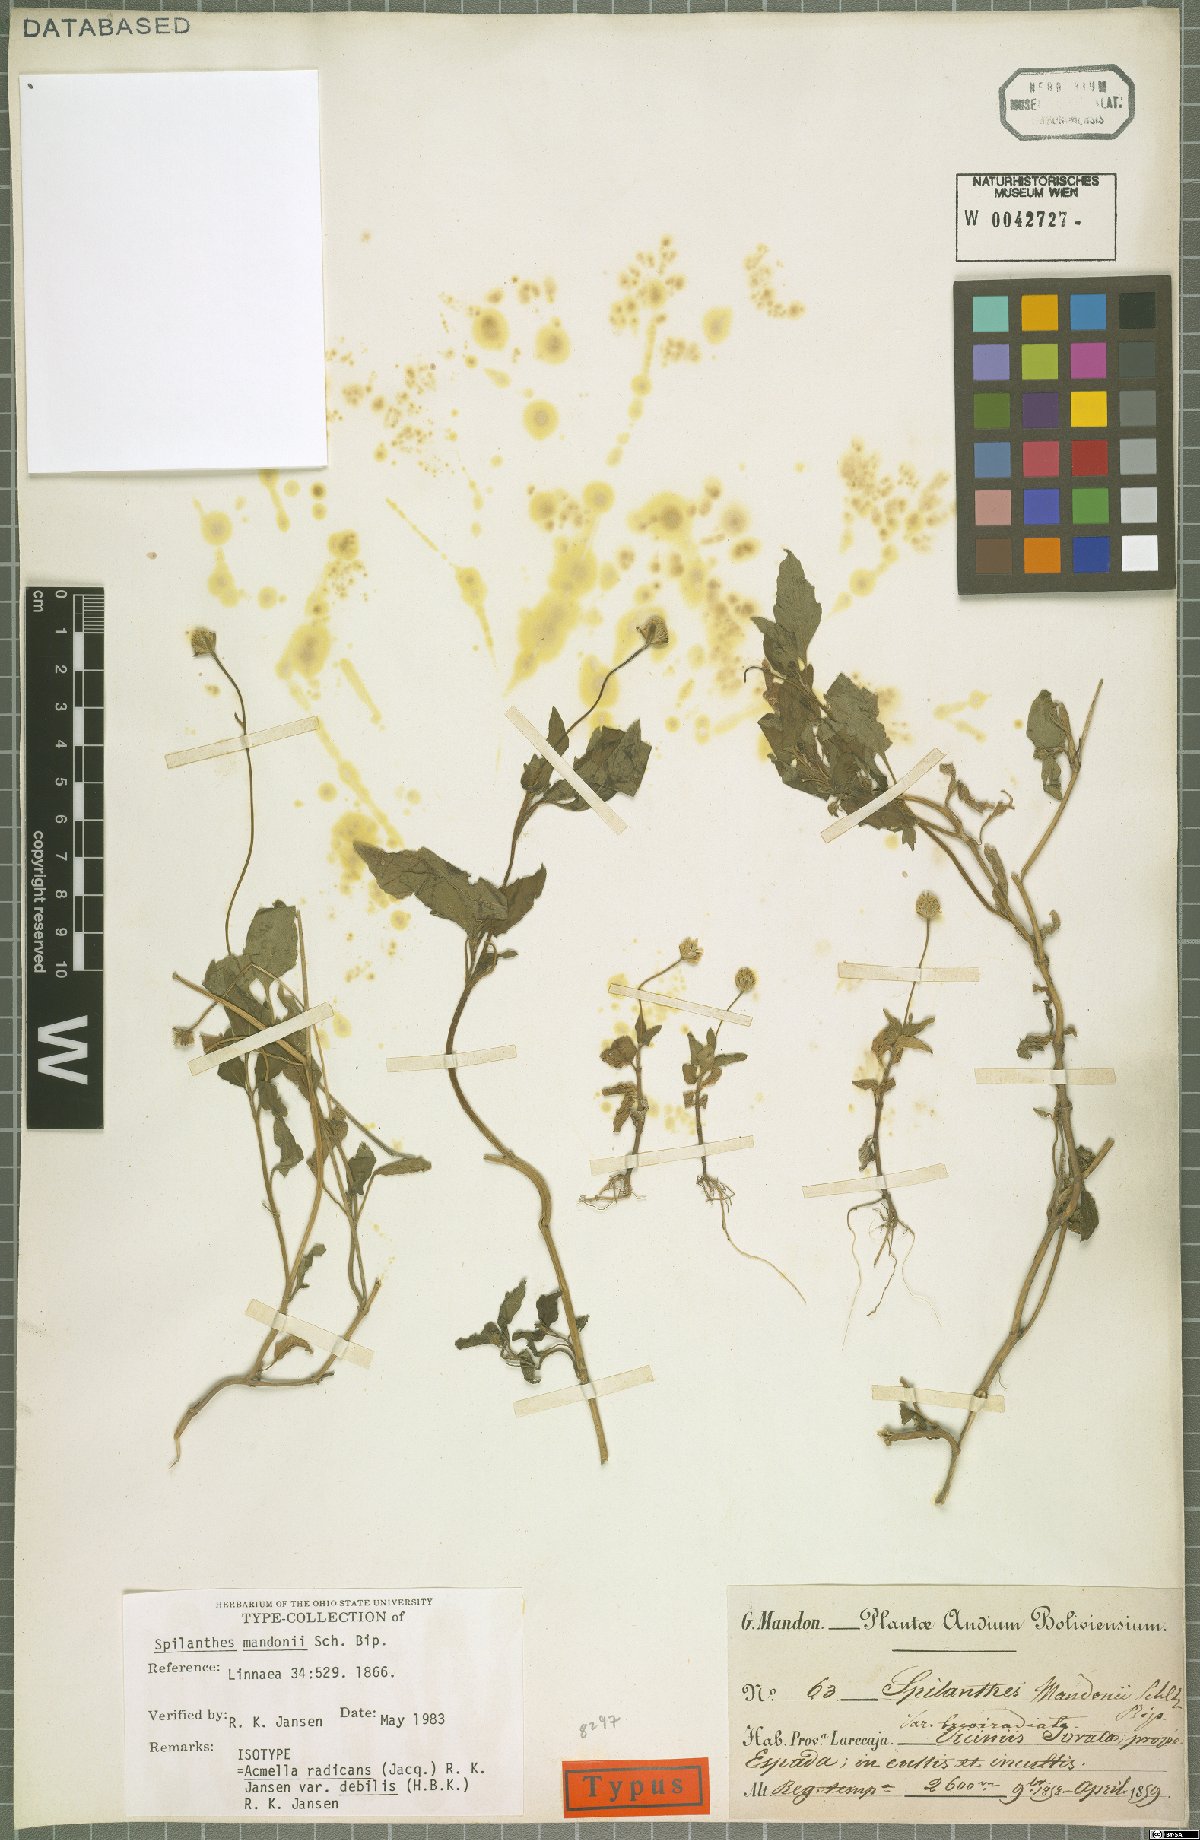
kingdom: Plantae
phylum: Tracheophyta
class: Magnoliopsida
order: Asterales
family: Asteraceae
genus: Acmella
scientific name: Acmella radicans
